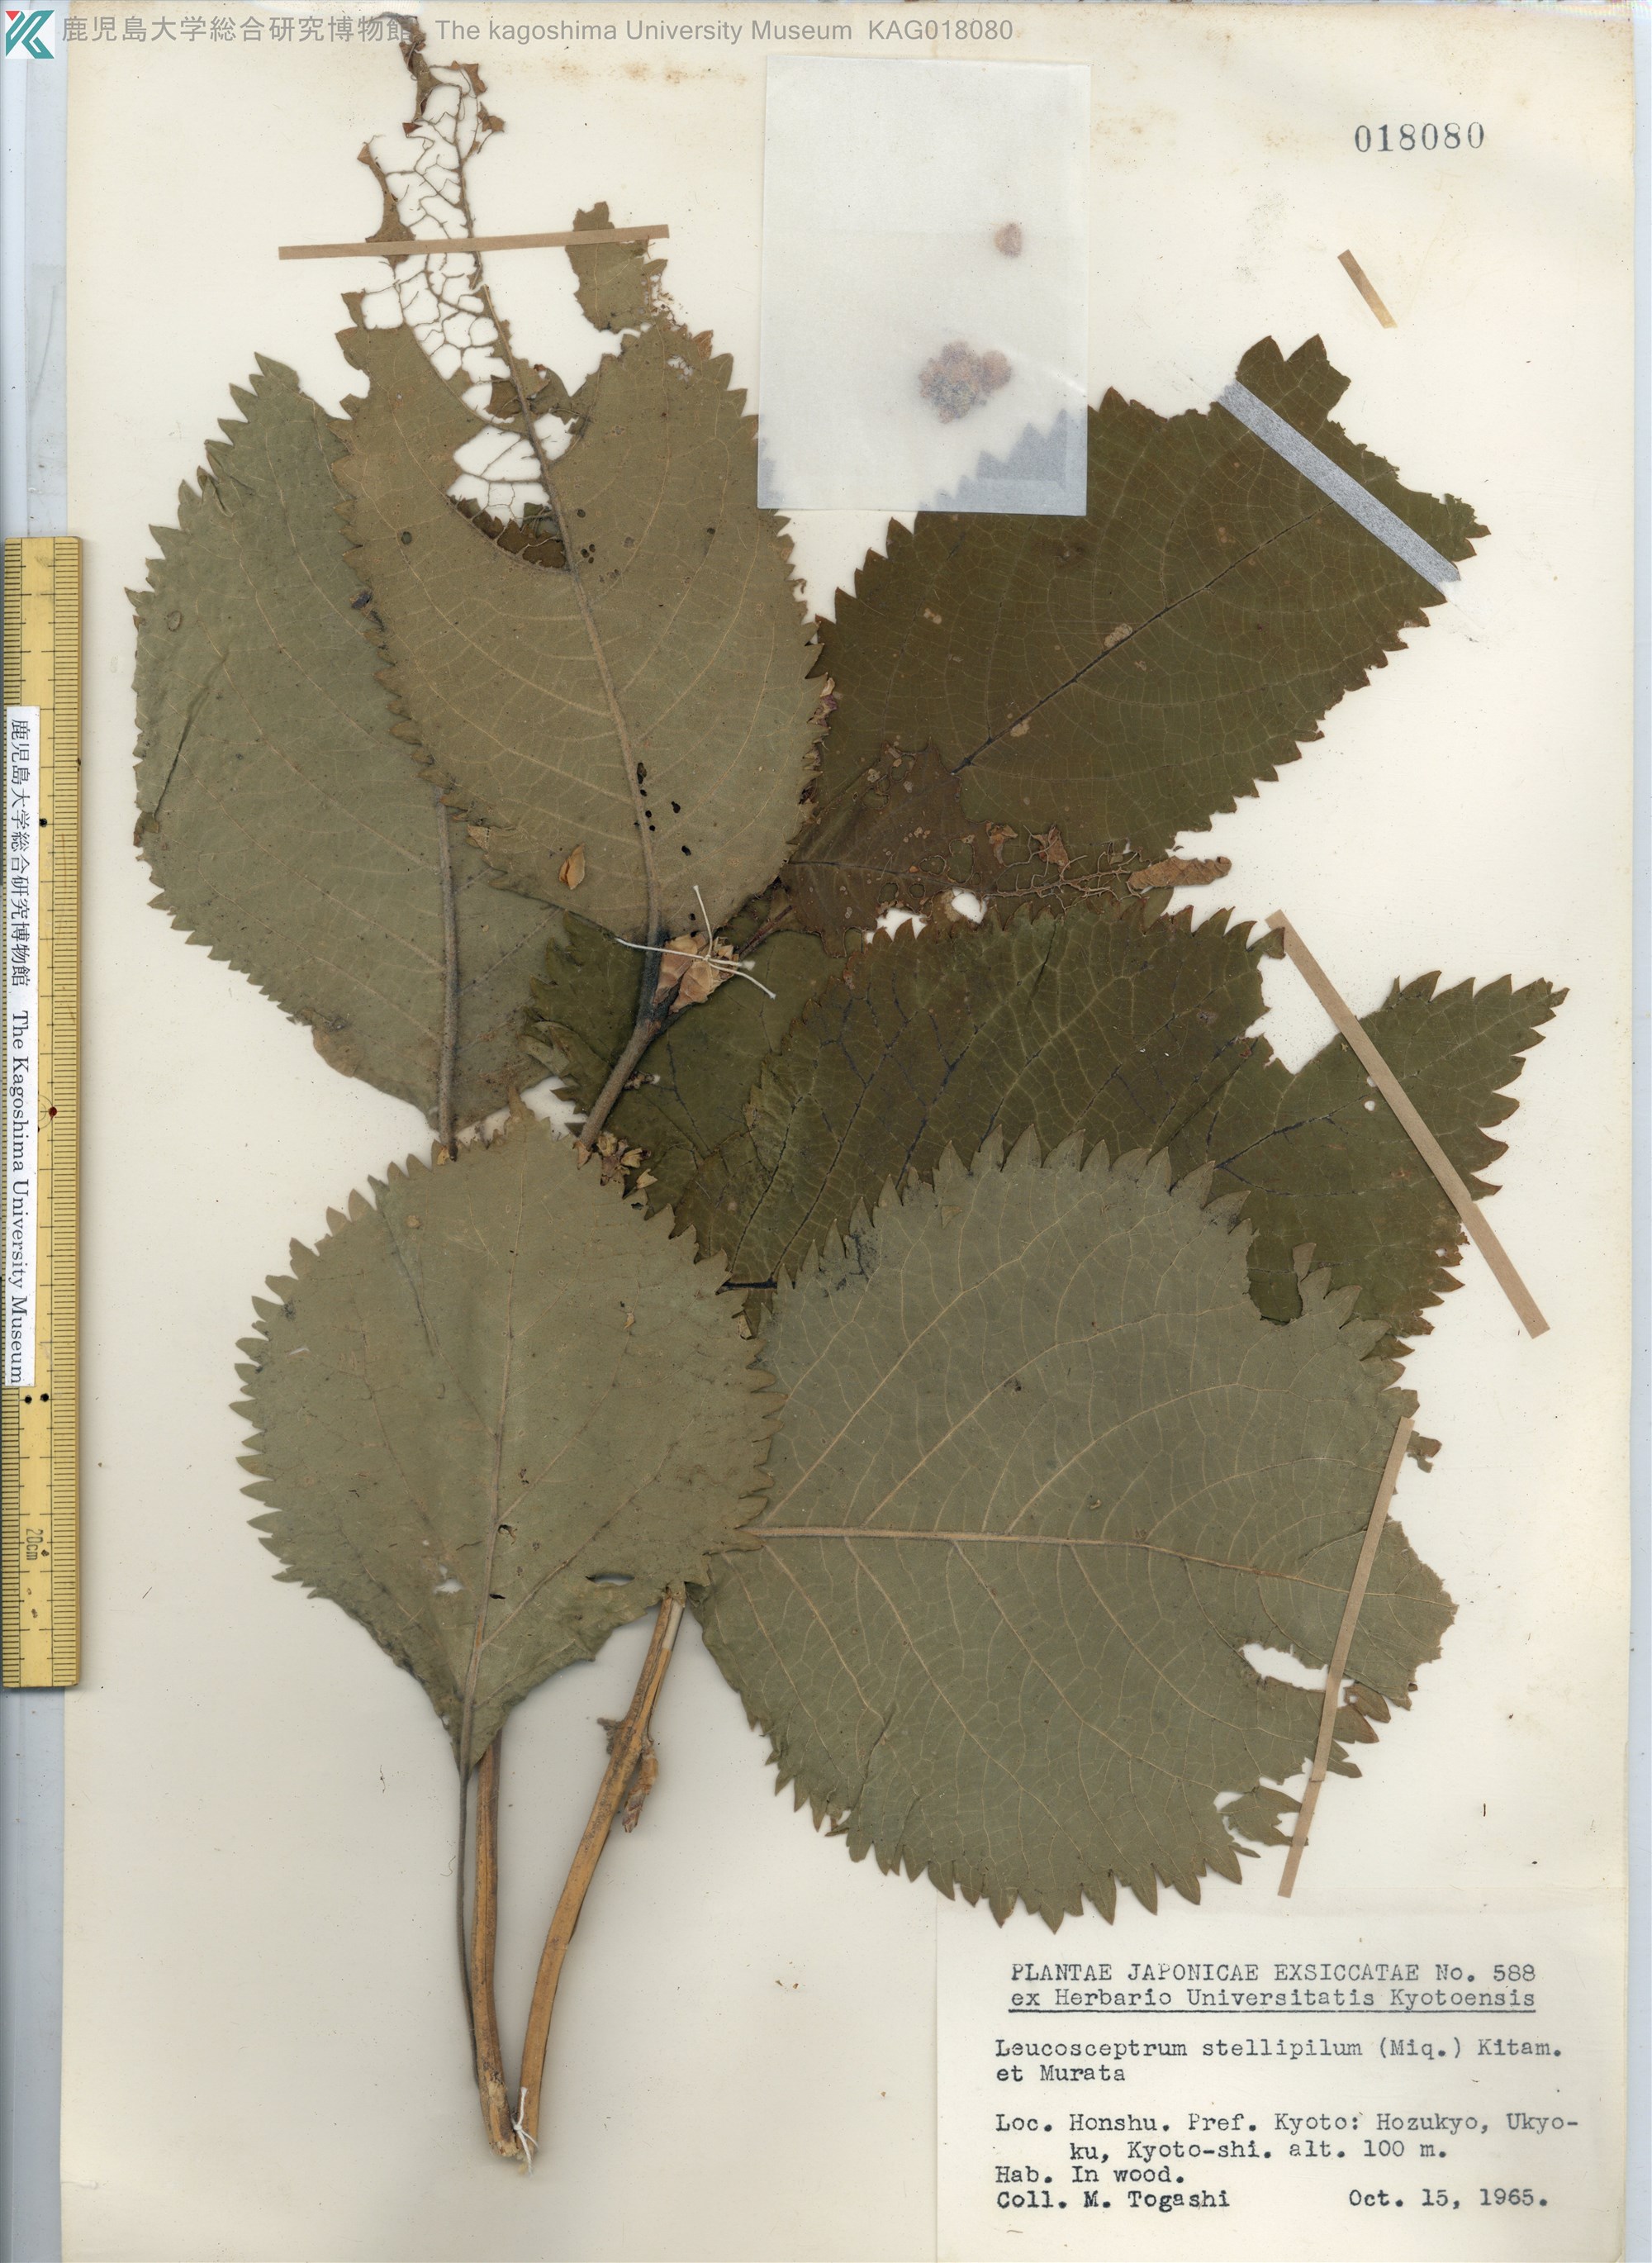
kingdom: Plantae
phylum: Tracheophyta
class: Magnoliopsida
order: Lamiales
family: Lamiaceae
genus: Comanthosphace
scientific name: Comanthosphace stellipila
